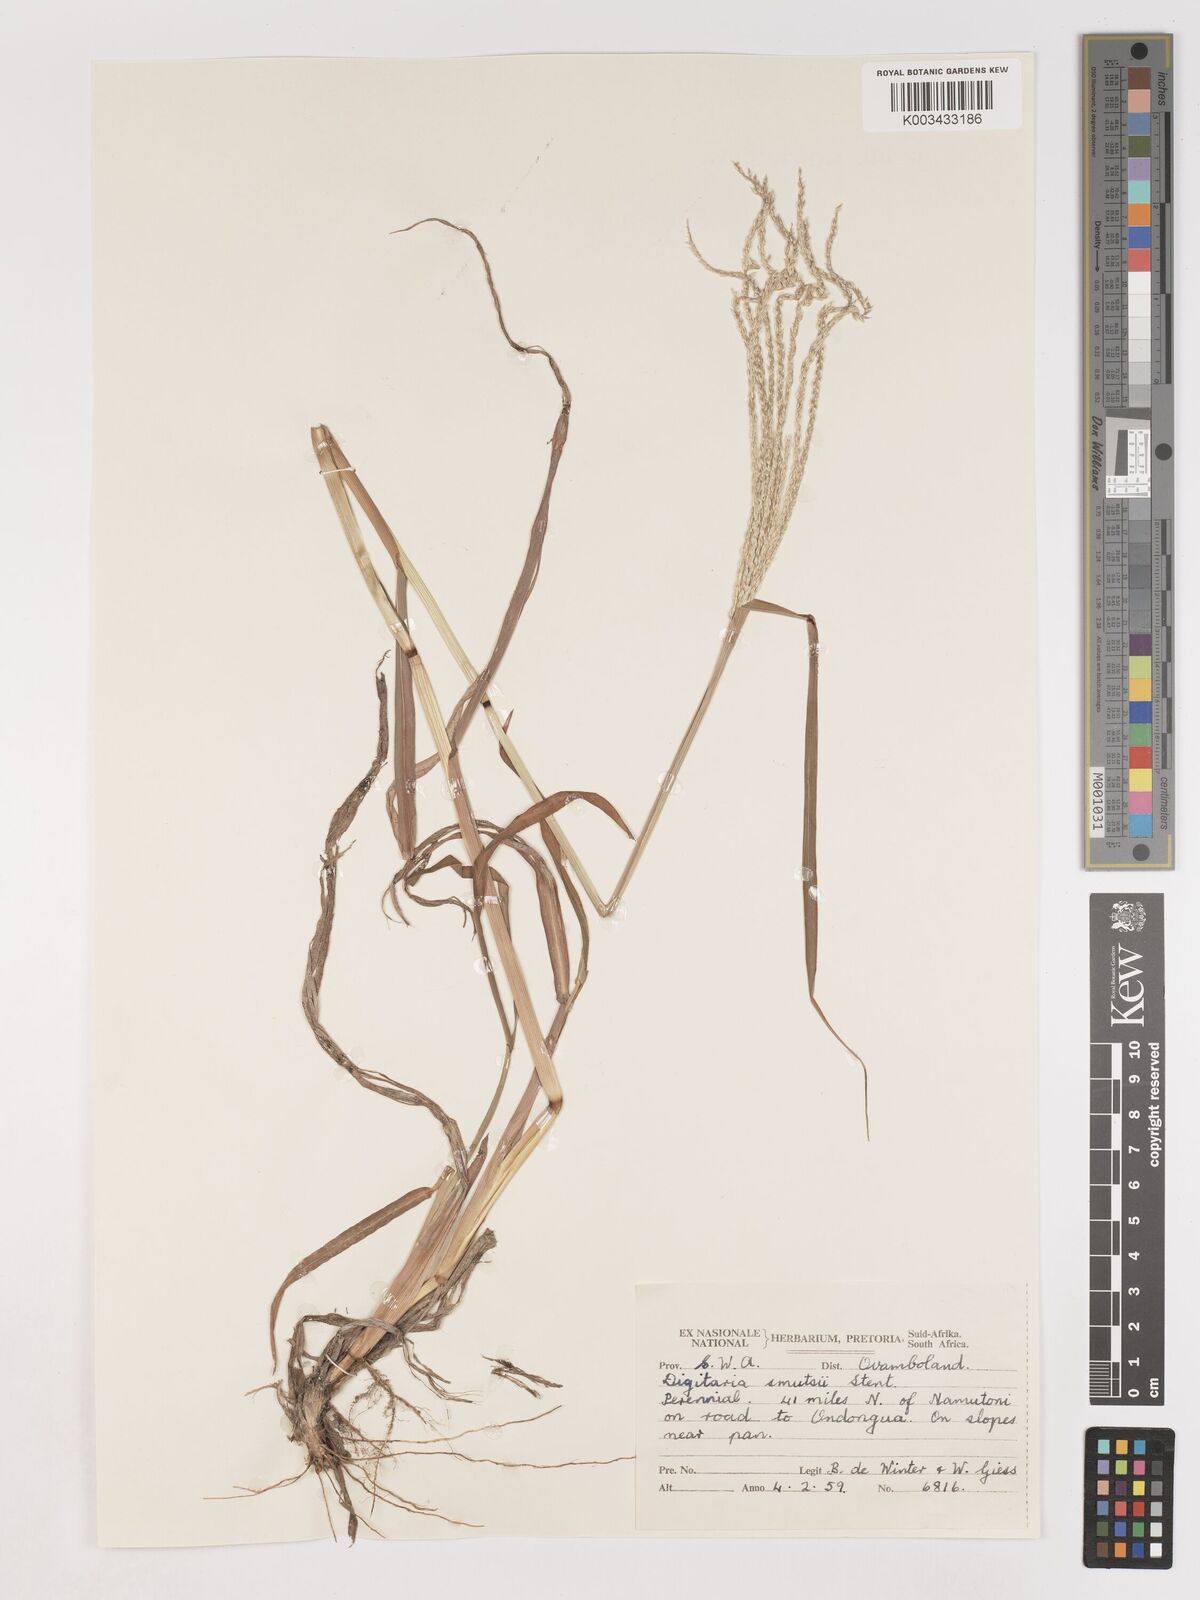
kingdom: Plantae
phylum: Tracheophyta
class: Liliopsida
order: Poales
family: Poaceae
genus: Digitaria
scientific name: Digitaria eriantha
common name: Digitgrass
